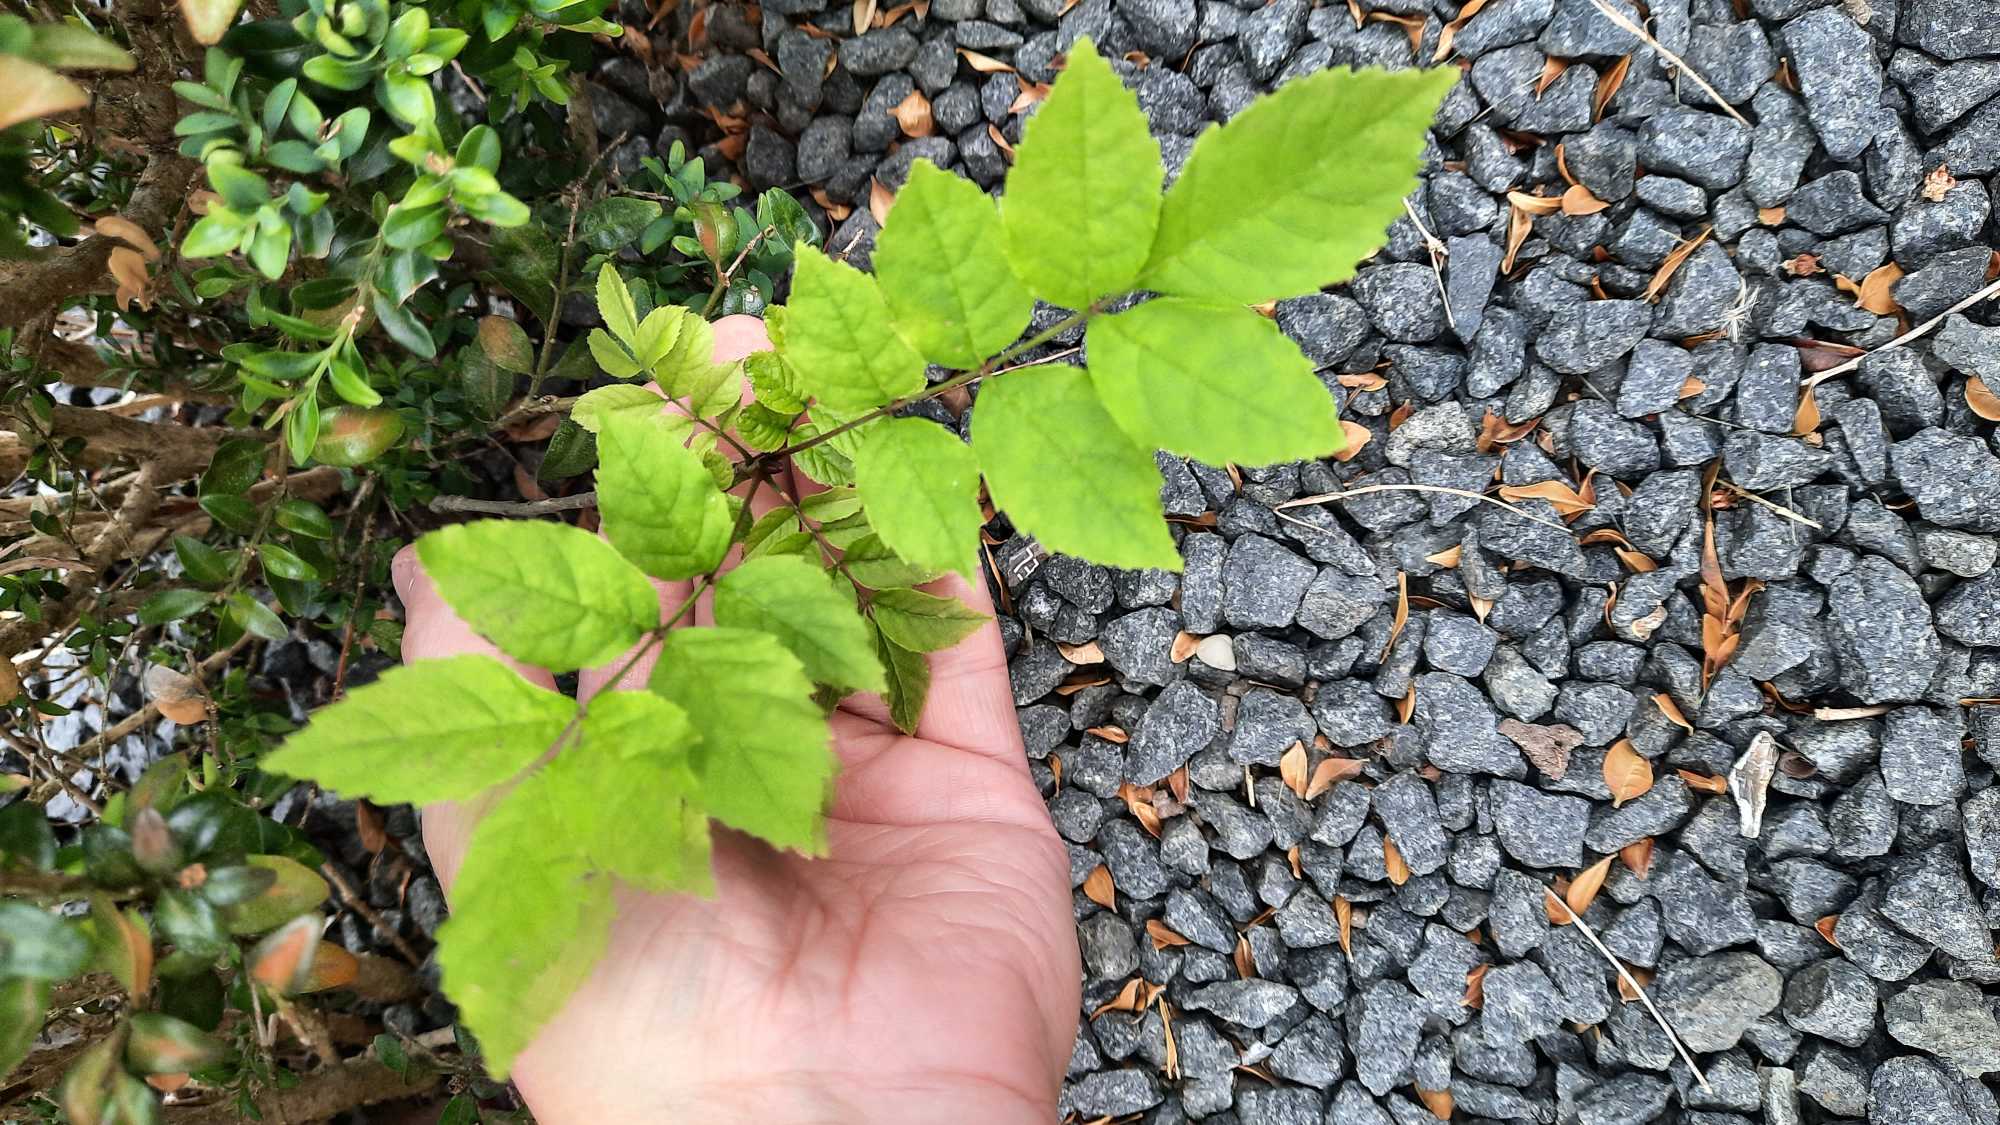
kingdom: Plantae
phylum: Tracheophyta
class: Magnoliopsida
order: Lamiales
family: Oleaceae
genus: Fraxinus
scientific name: Fraxinus excelsior
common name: Ask
